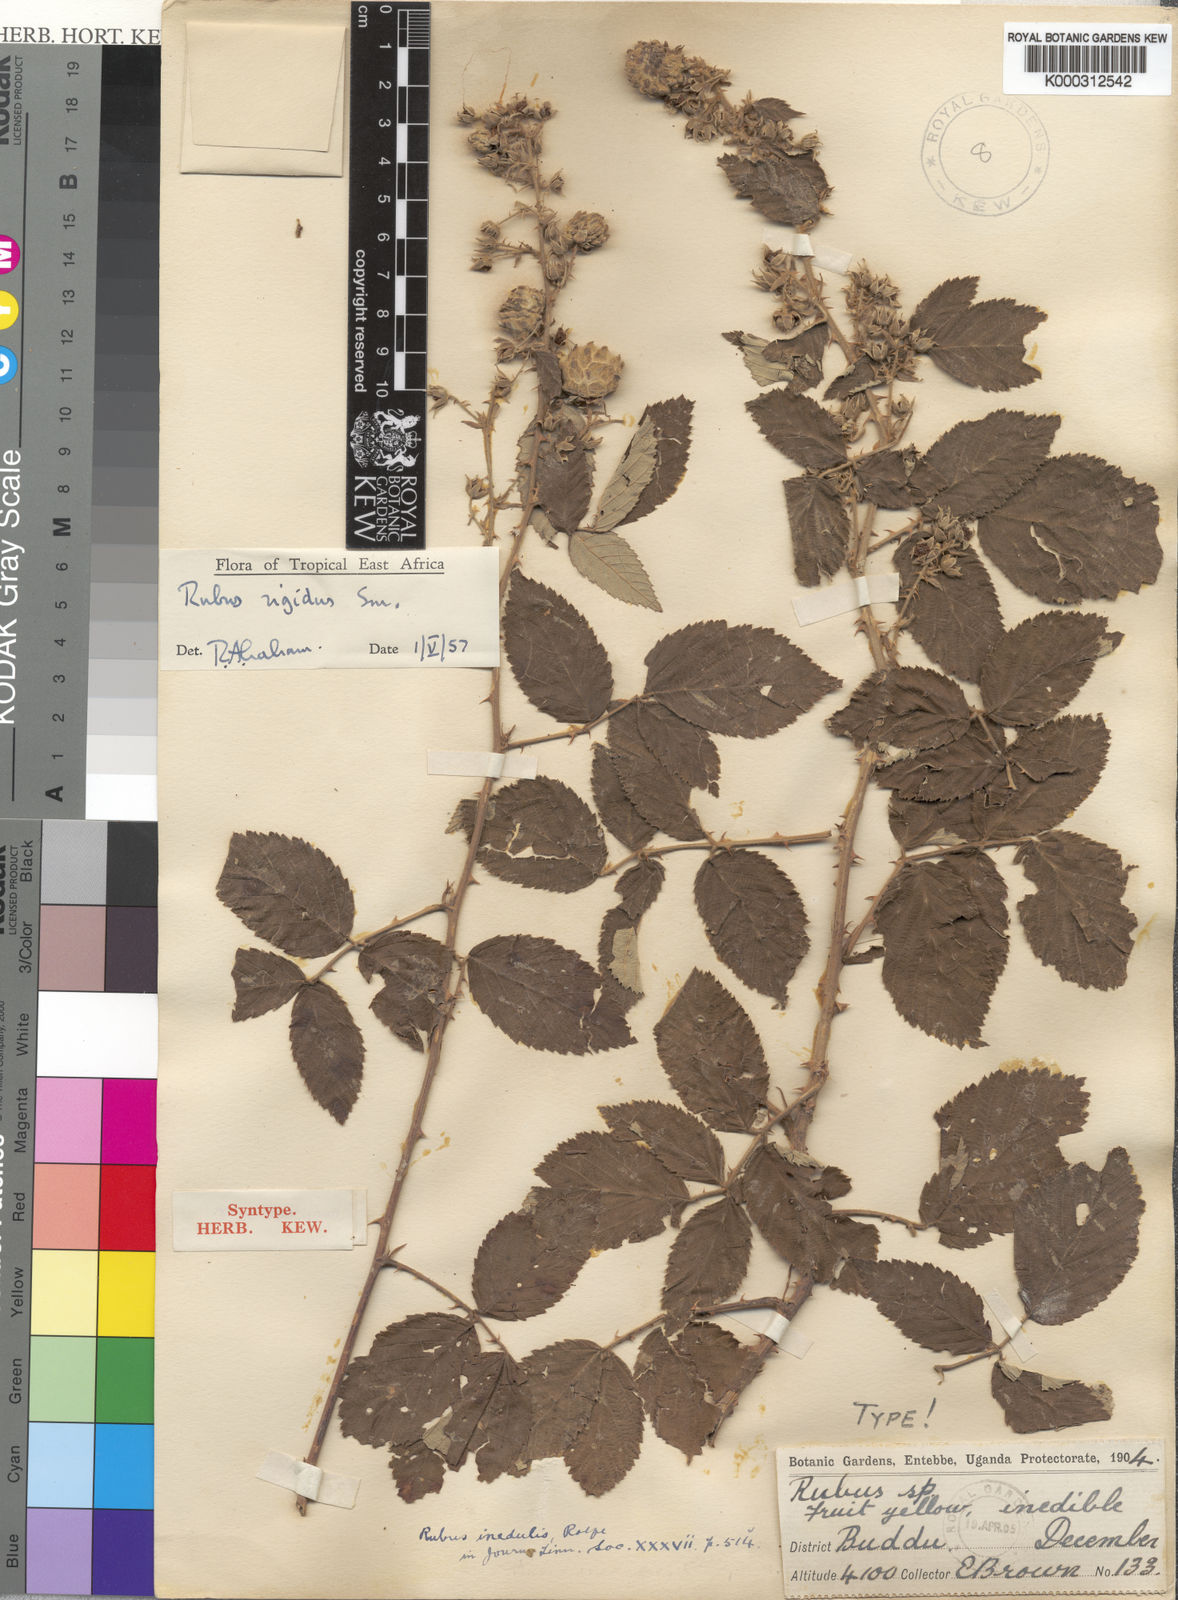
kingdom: Plantae
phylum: Tracheophyta
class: Magnoliopsida
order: Rosales
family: Rosaceae
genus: Rubus
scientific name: Rubus rigidus
